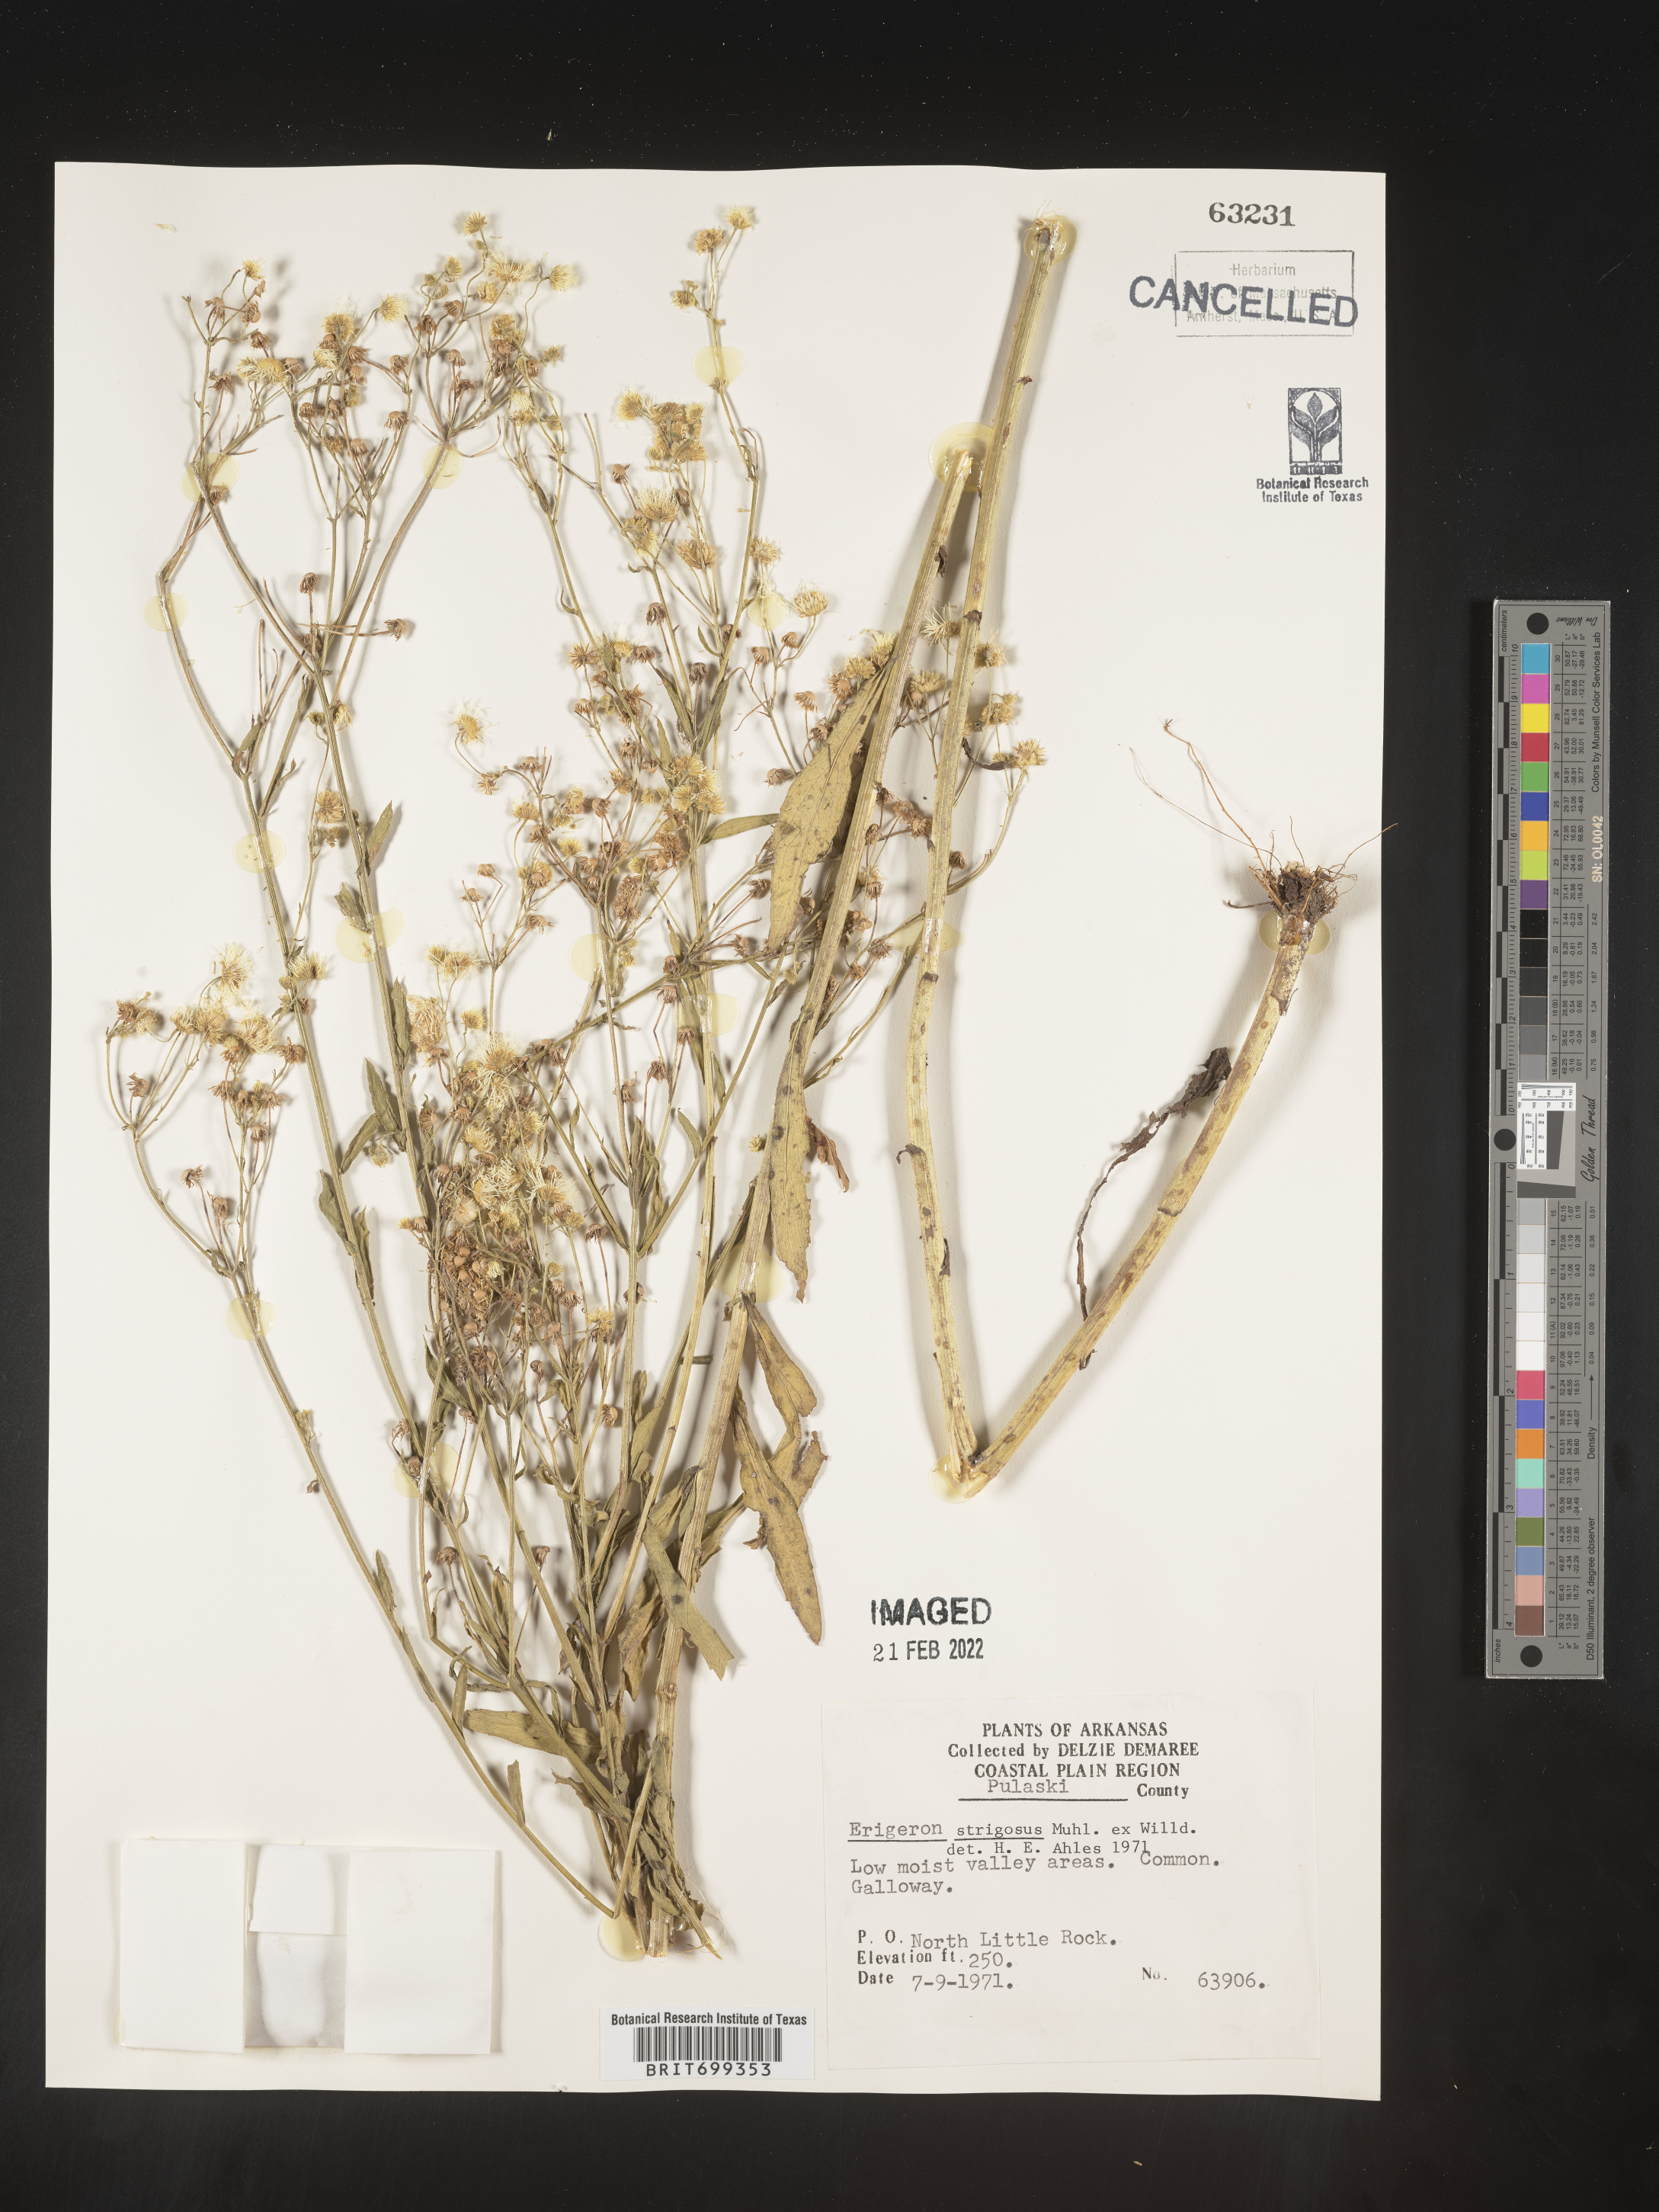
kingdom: Plantae
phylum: Tracheophyta
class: Magnoliopsida
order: Asterales
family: Asteraceae
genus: Erigeron
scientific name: Erigeron strigosus
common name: Common eastern fleabane
